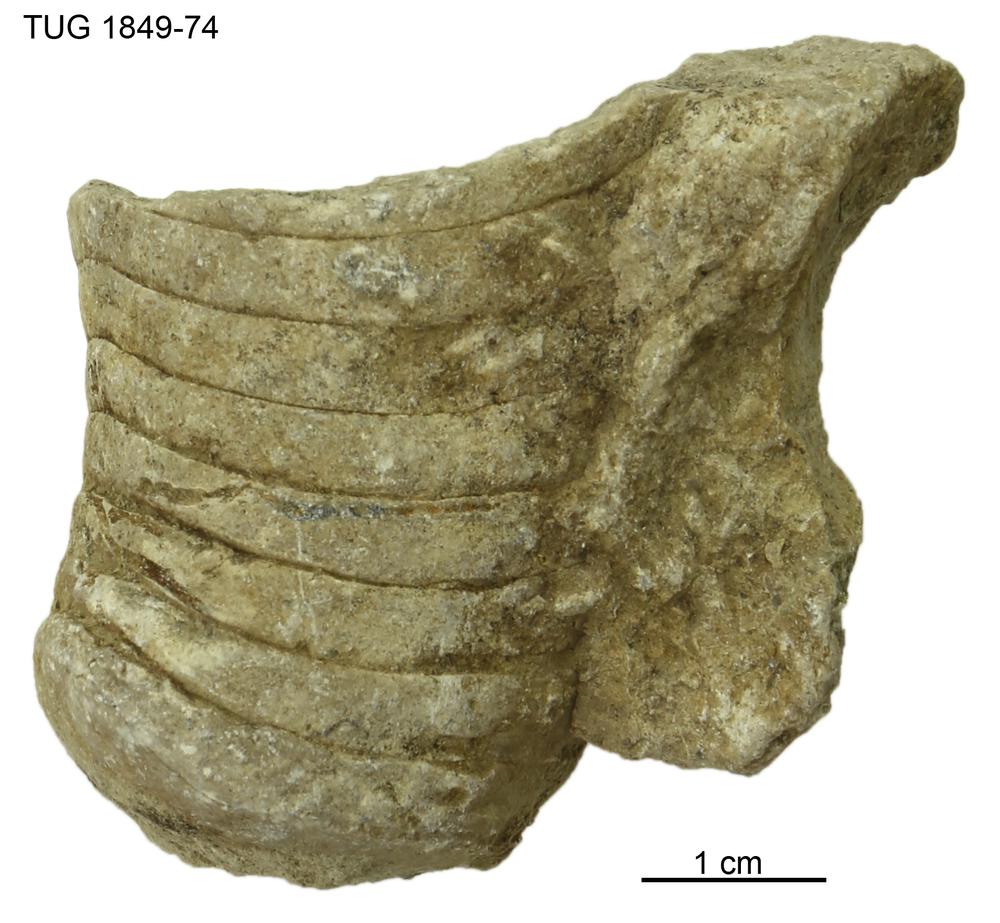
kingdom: Animalia
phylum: Mollusca
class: Cephalopoda
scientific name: Cephalopoda
